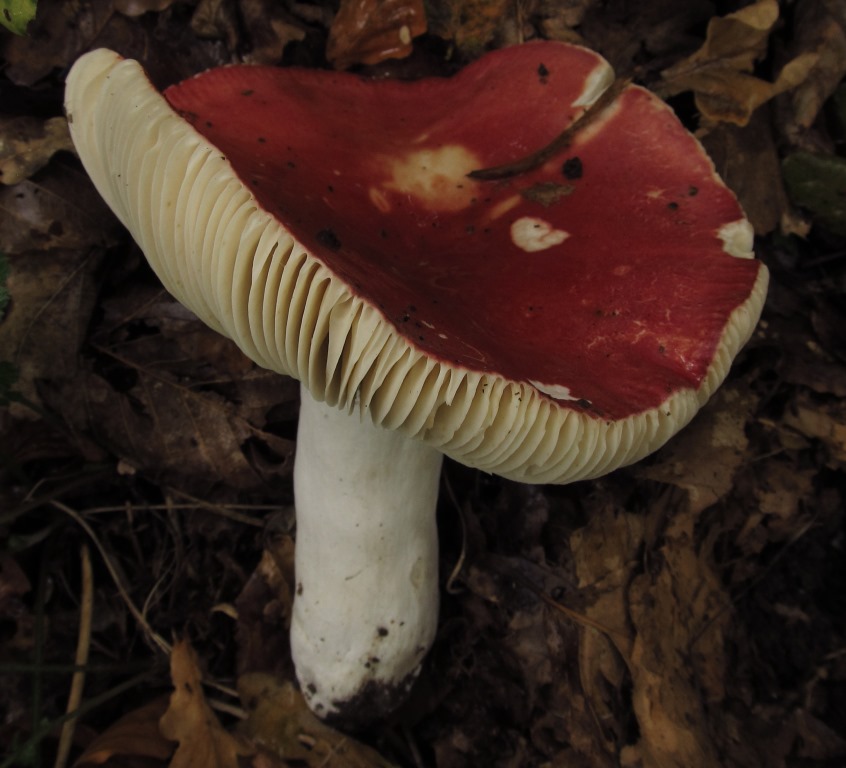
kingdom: Fungi
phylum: Basidiomycota
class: Agaricomycetes
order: Russulales
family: Russulaceae
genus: Russula
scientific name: Russula pseudointegra
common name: cinnoberrød skørhat
